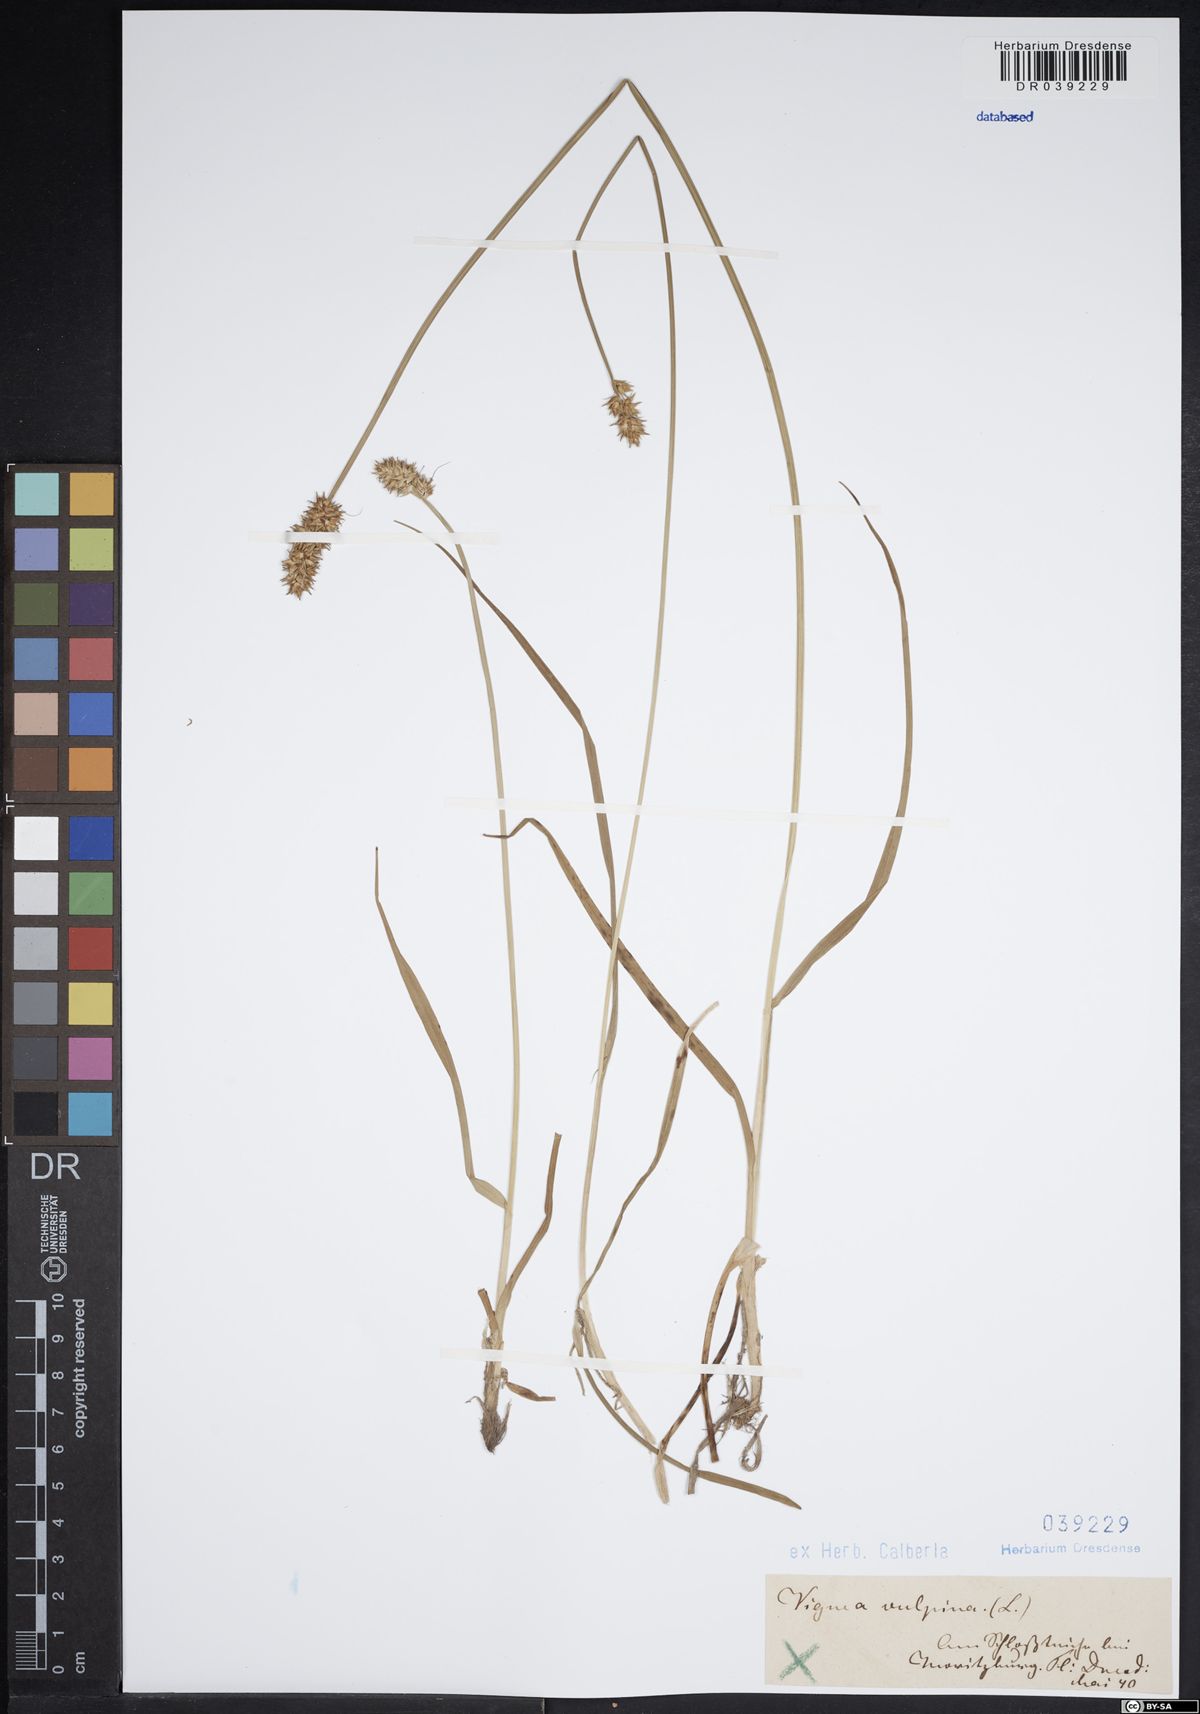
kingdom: Plantae
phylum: Tracheophyta
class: Liliopsida
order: Poales
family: Cyperaceae
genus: Carex
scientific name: Carex vulpina
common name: True fox-sedge
